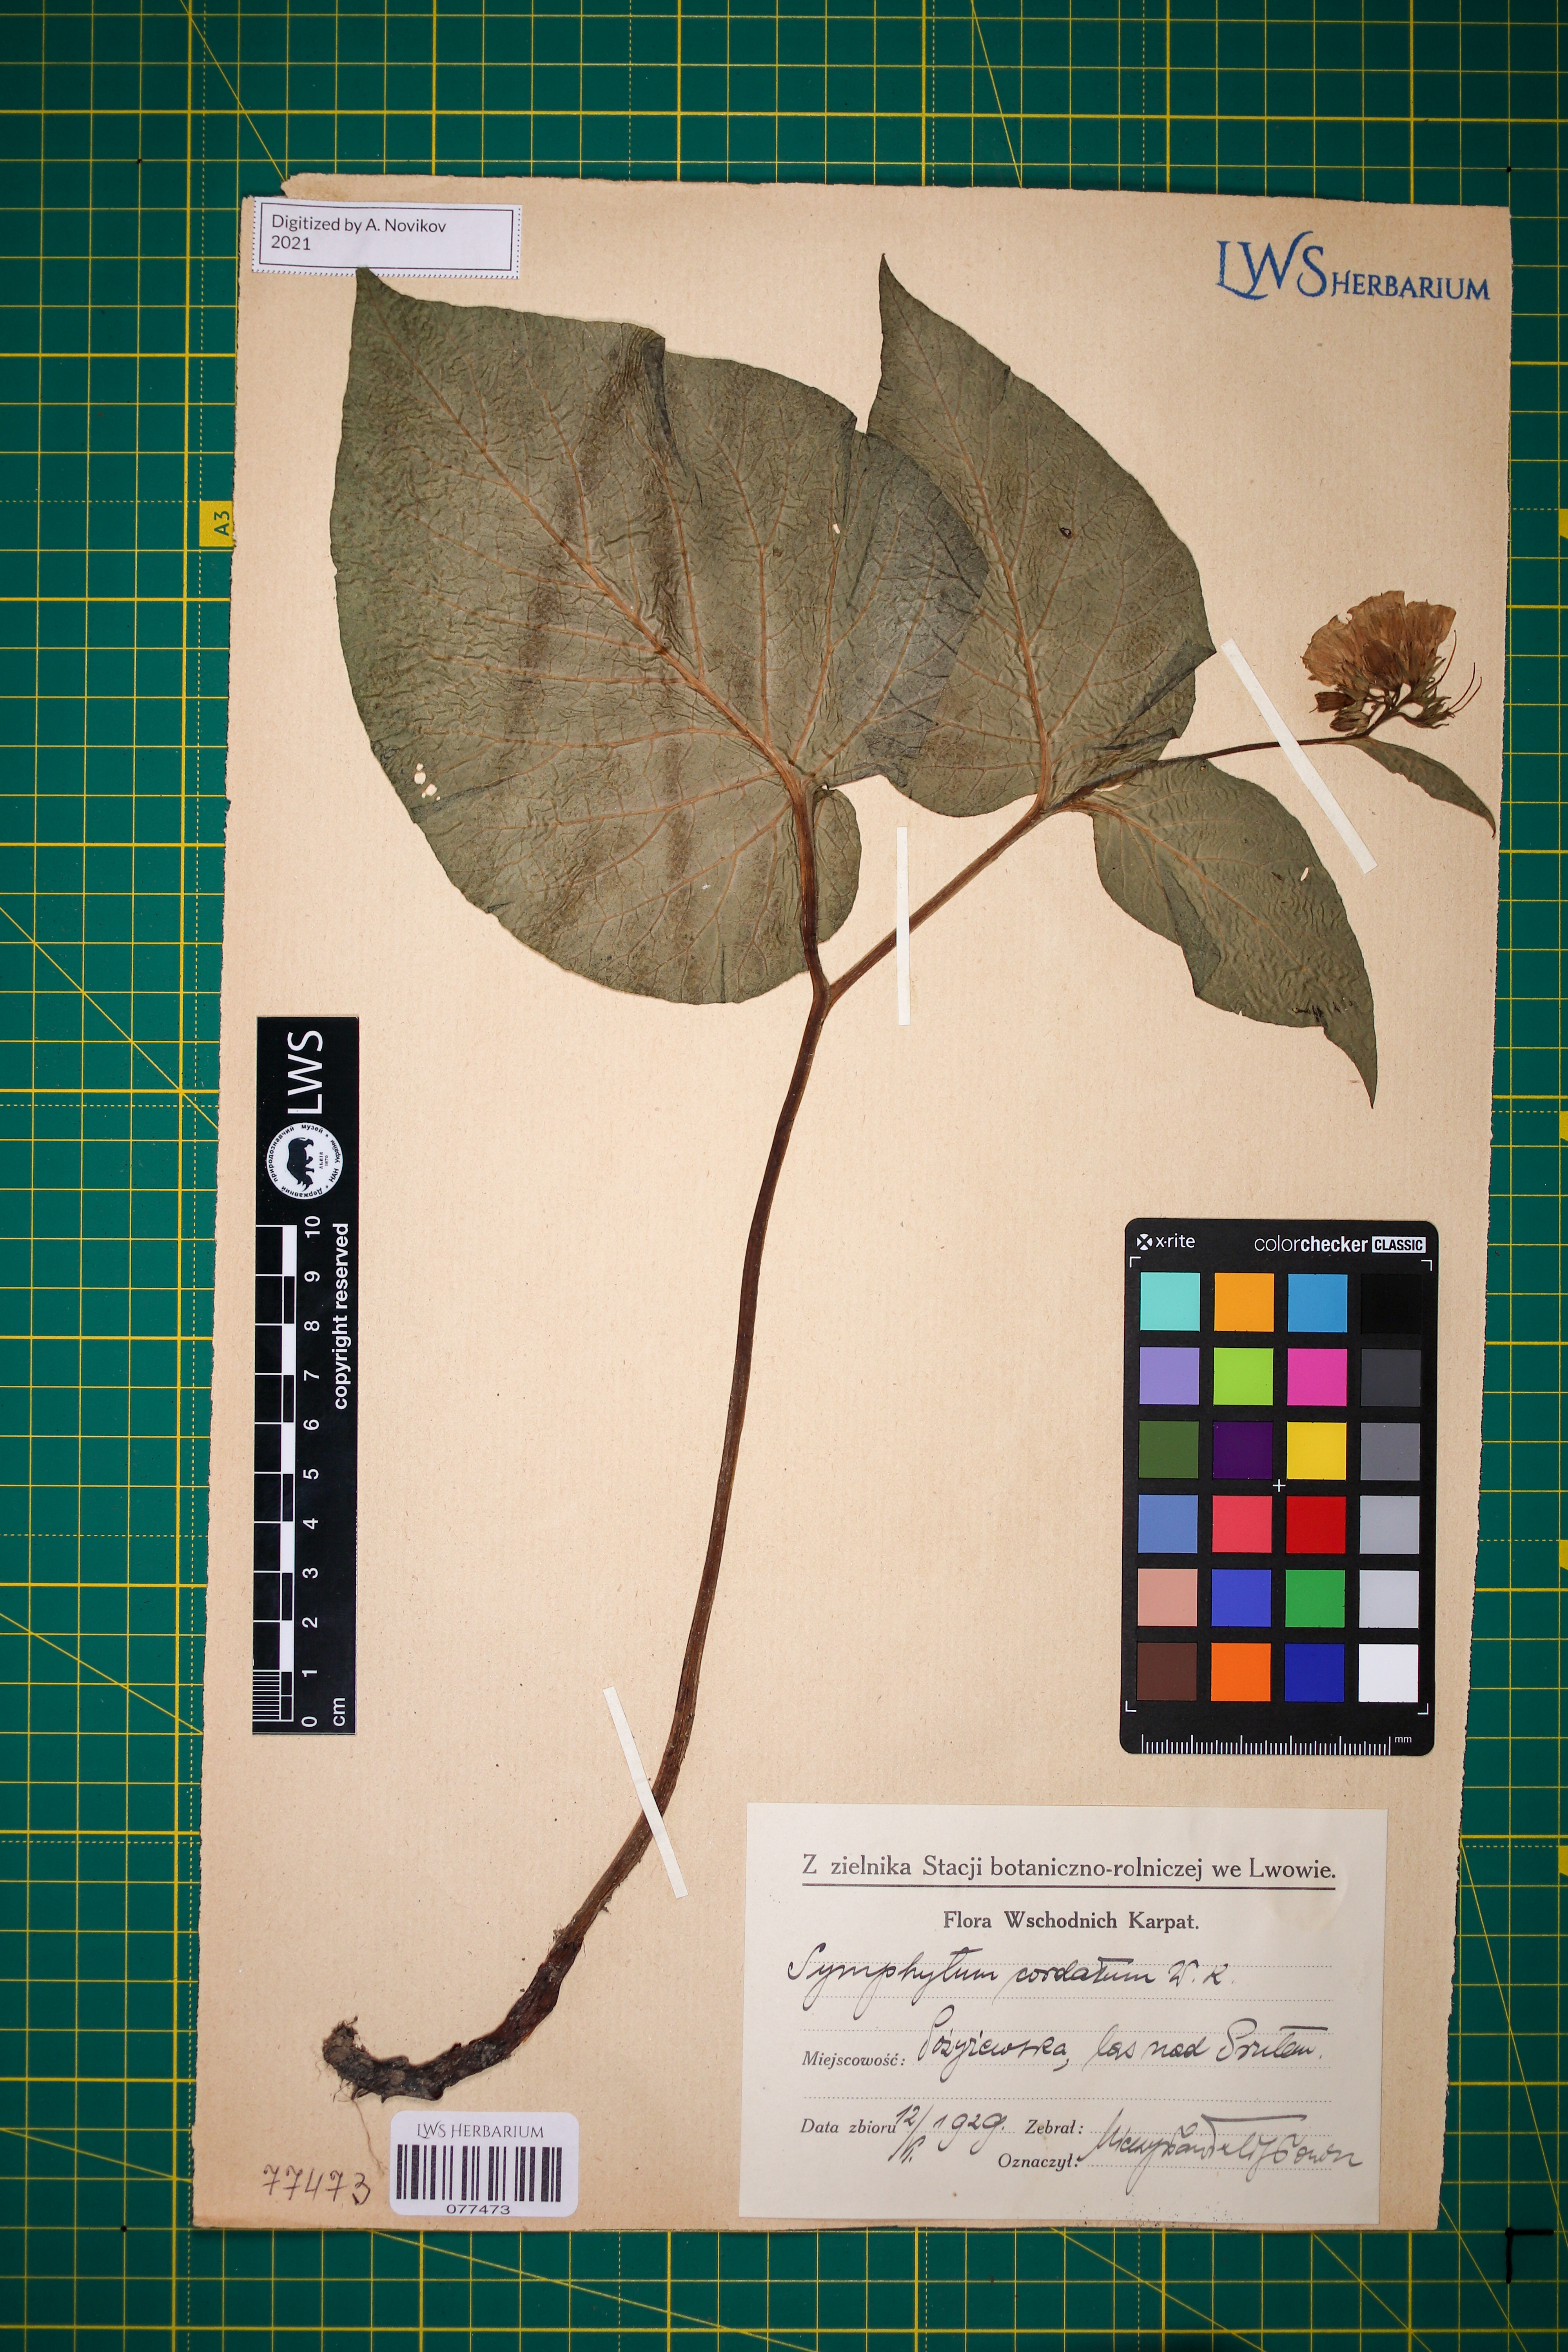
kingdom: Plantae
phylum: Tracheophyta
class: Magnoliopsida
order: Boraginales
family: Boraginaceae
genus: Symphytum
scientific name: Symphytum cordatum
